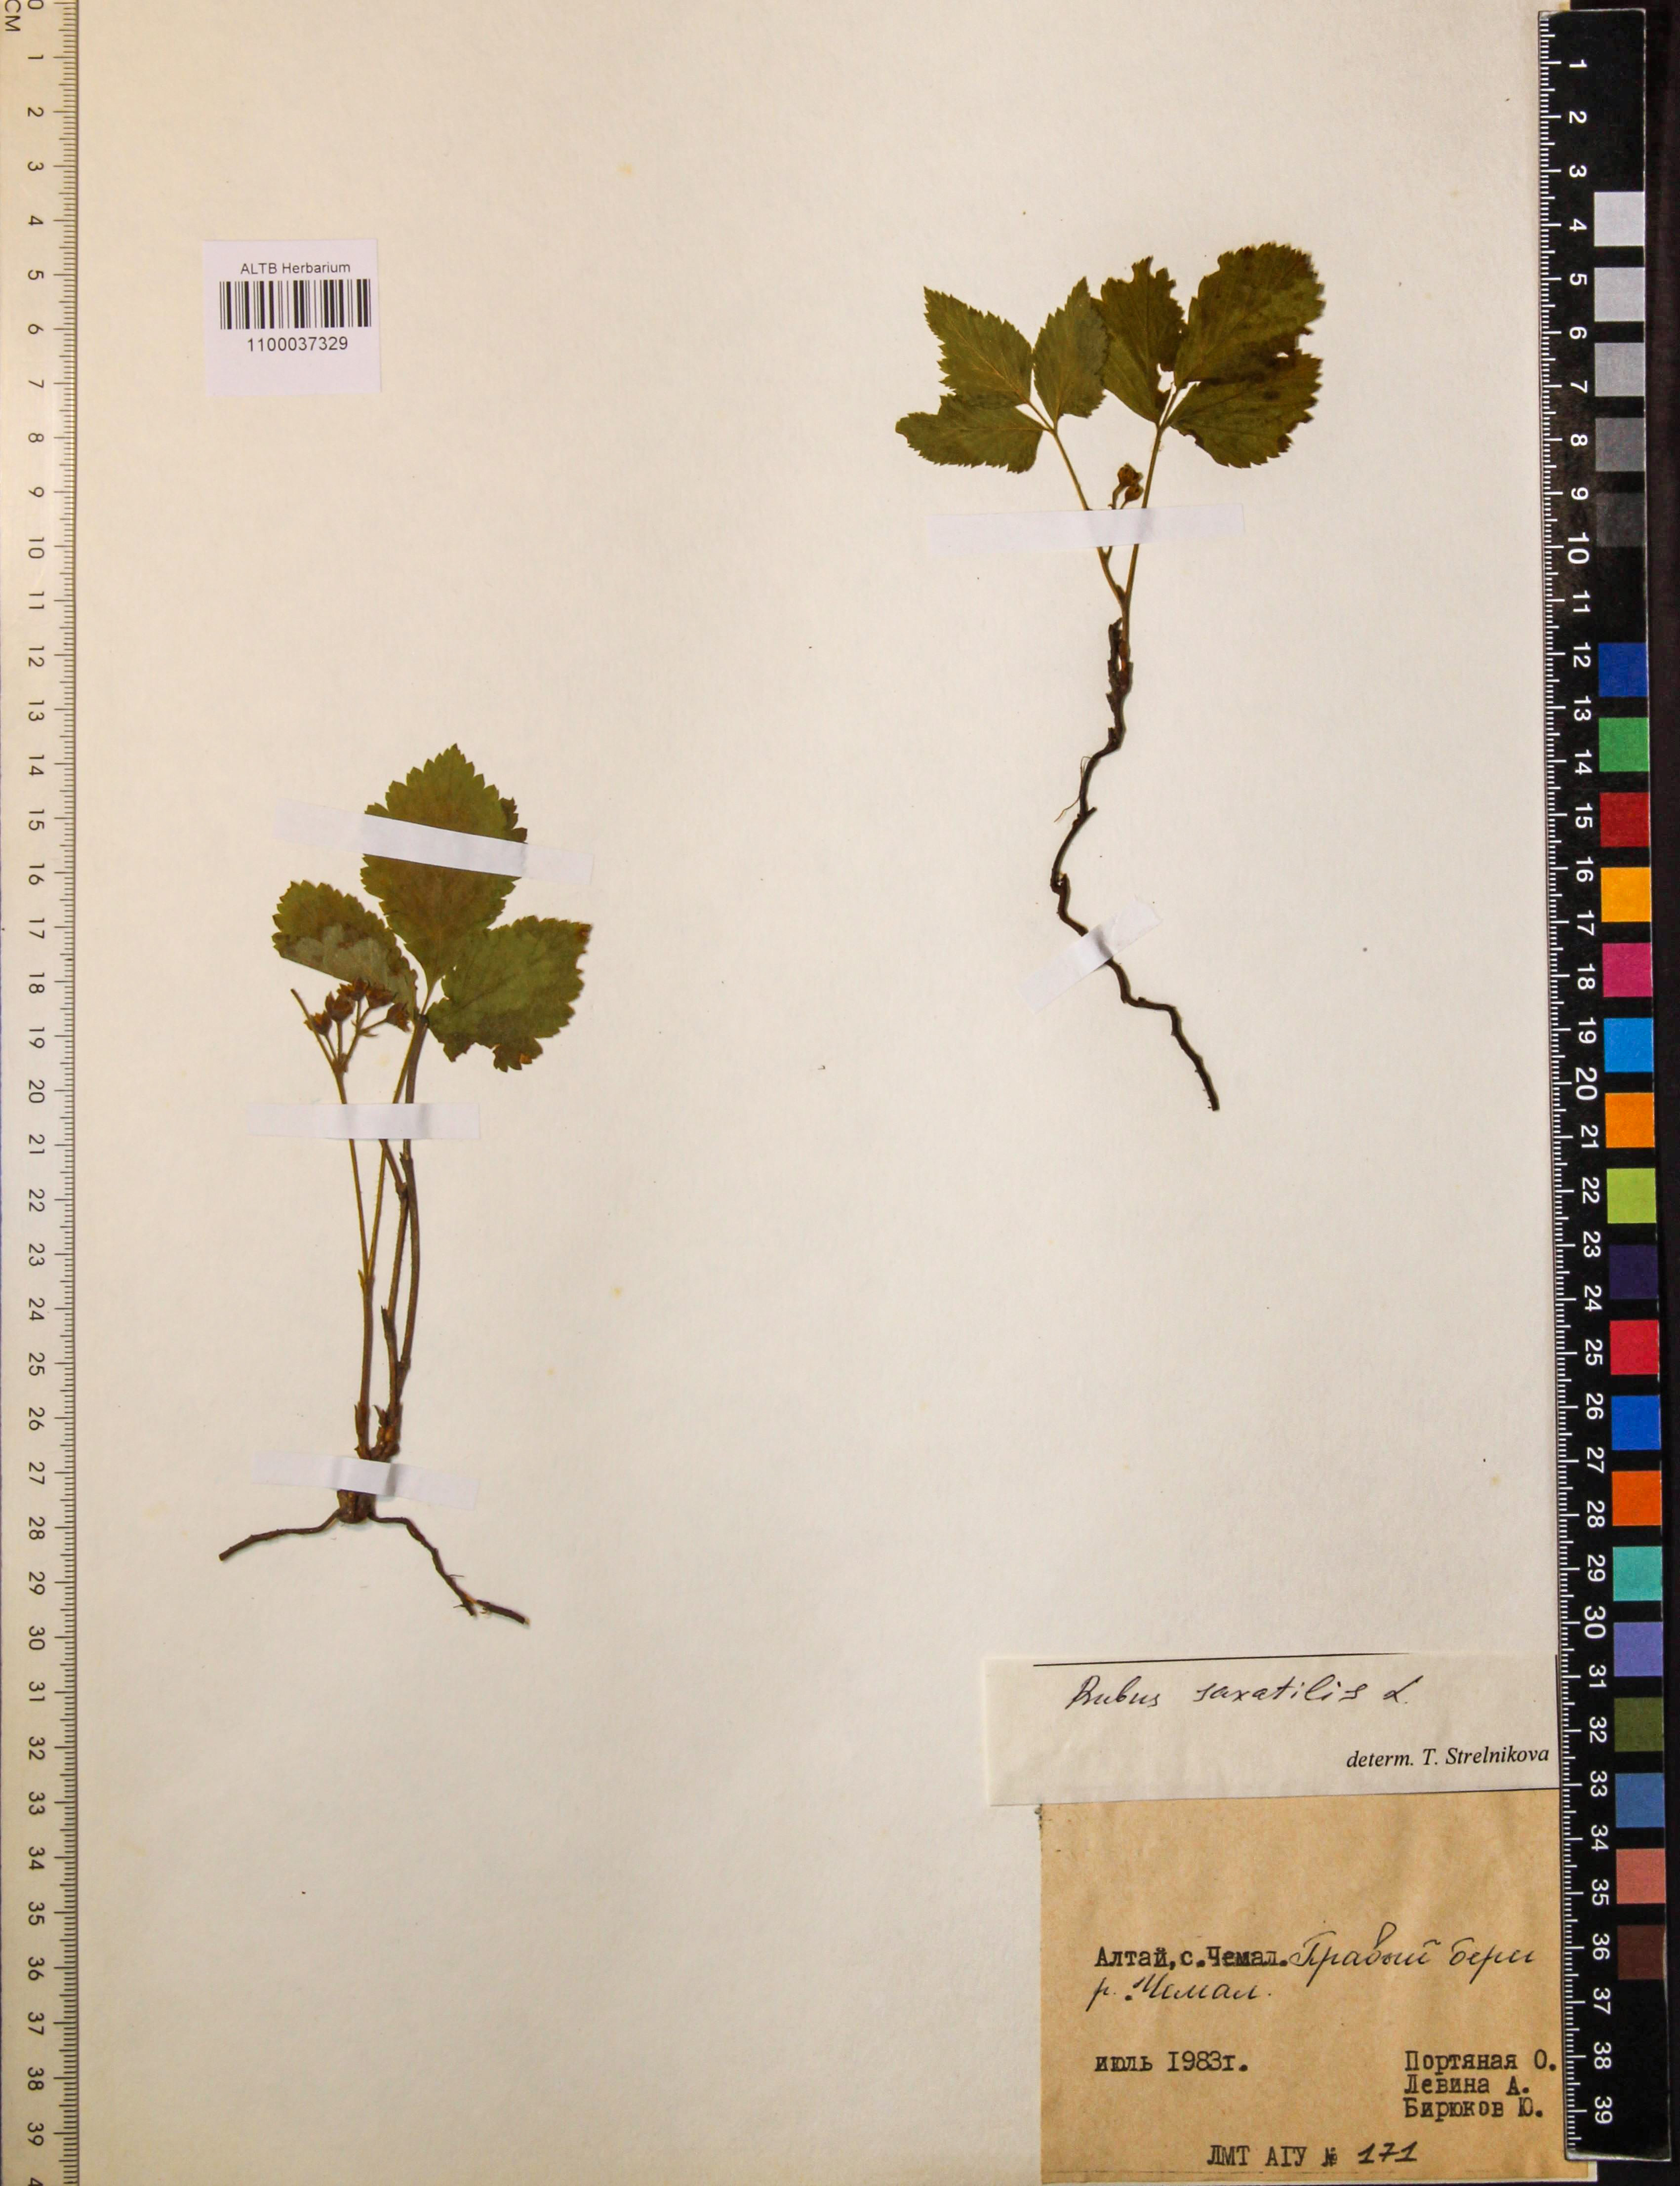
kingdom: Plantae
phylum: Tracheophyta
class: Magnoliopsida
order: Rosales
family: Rosaceae
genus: Rubus
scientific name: Rubus saxatilis
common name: Stone bramble
